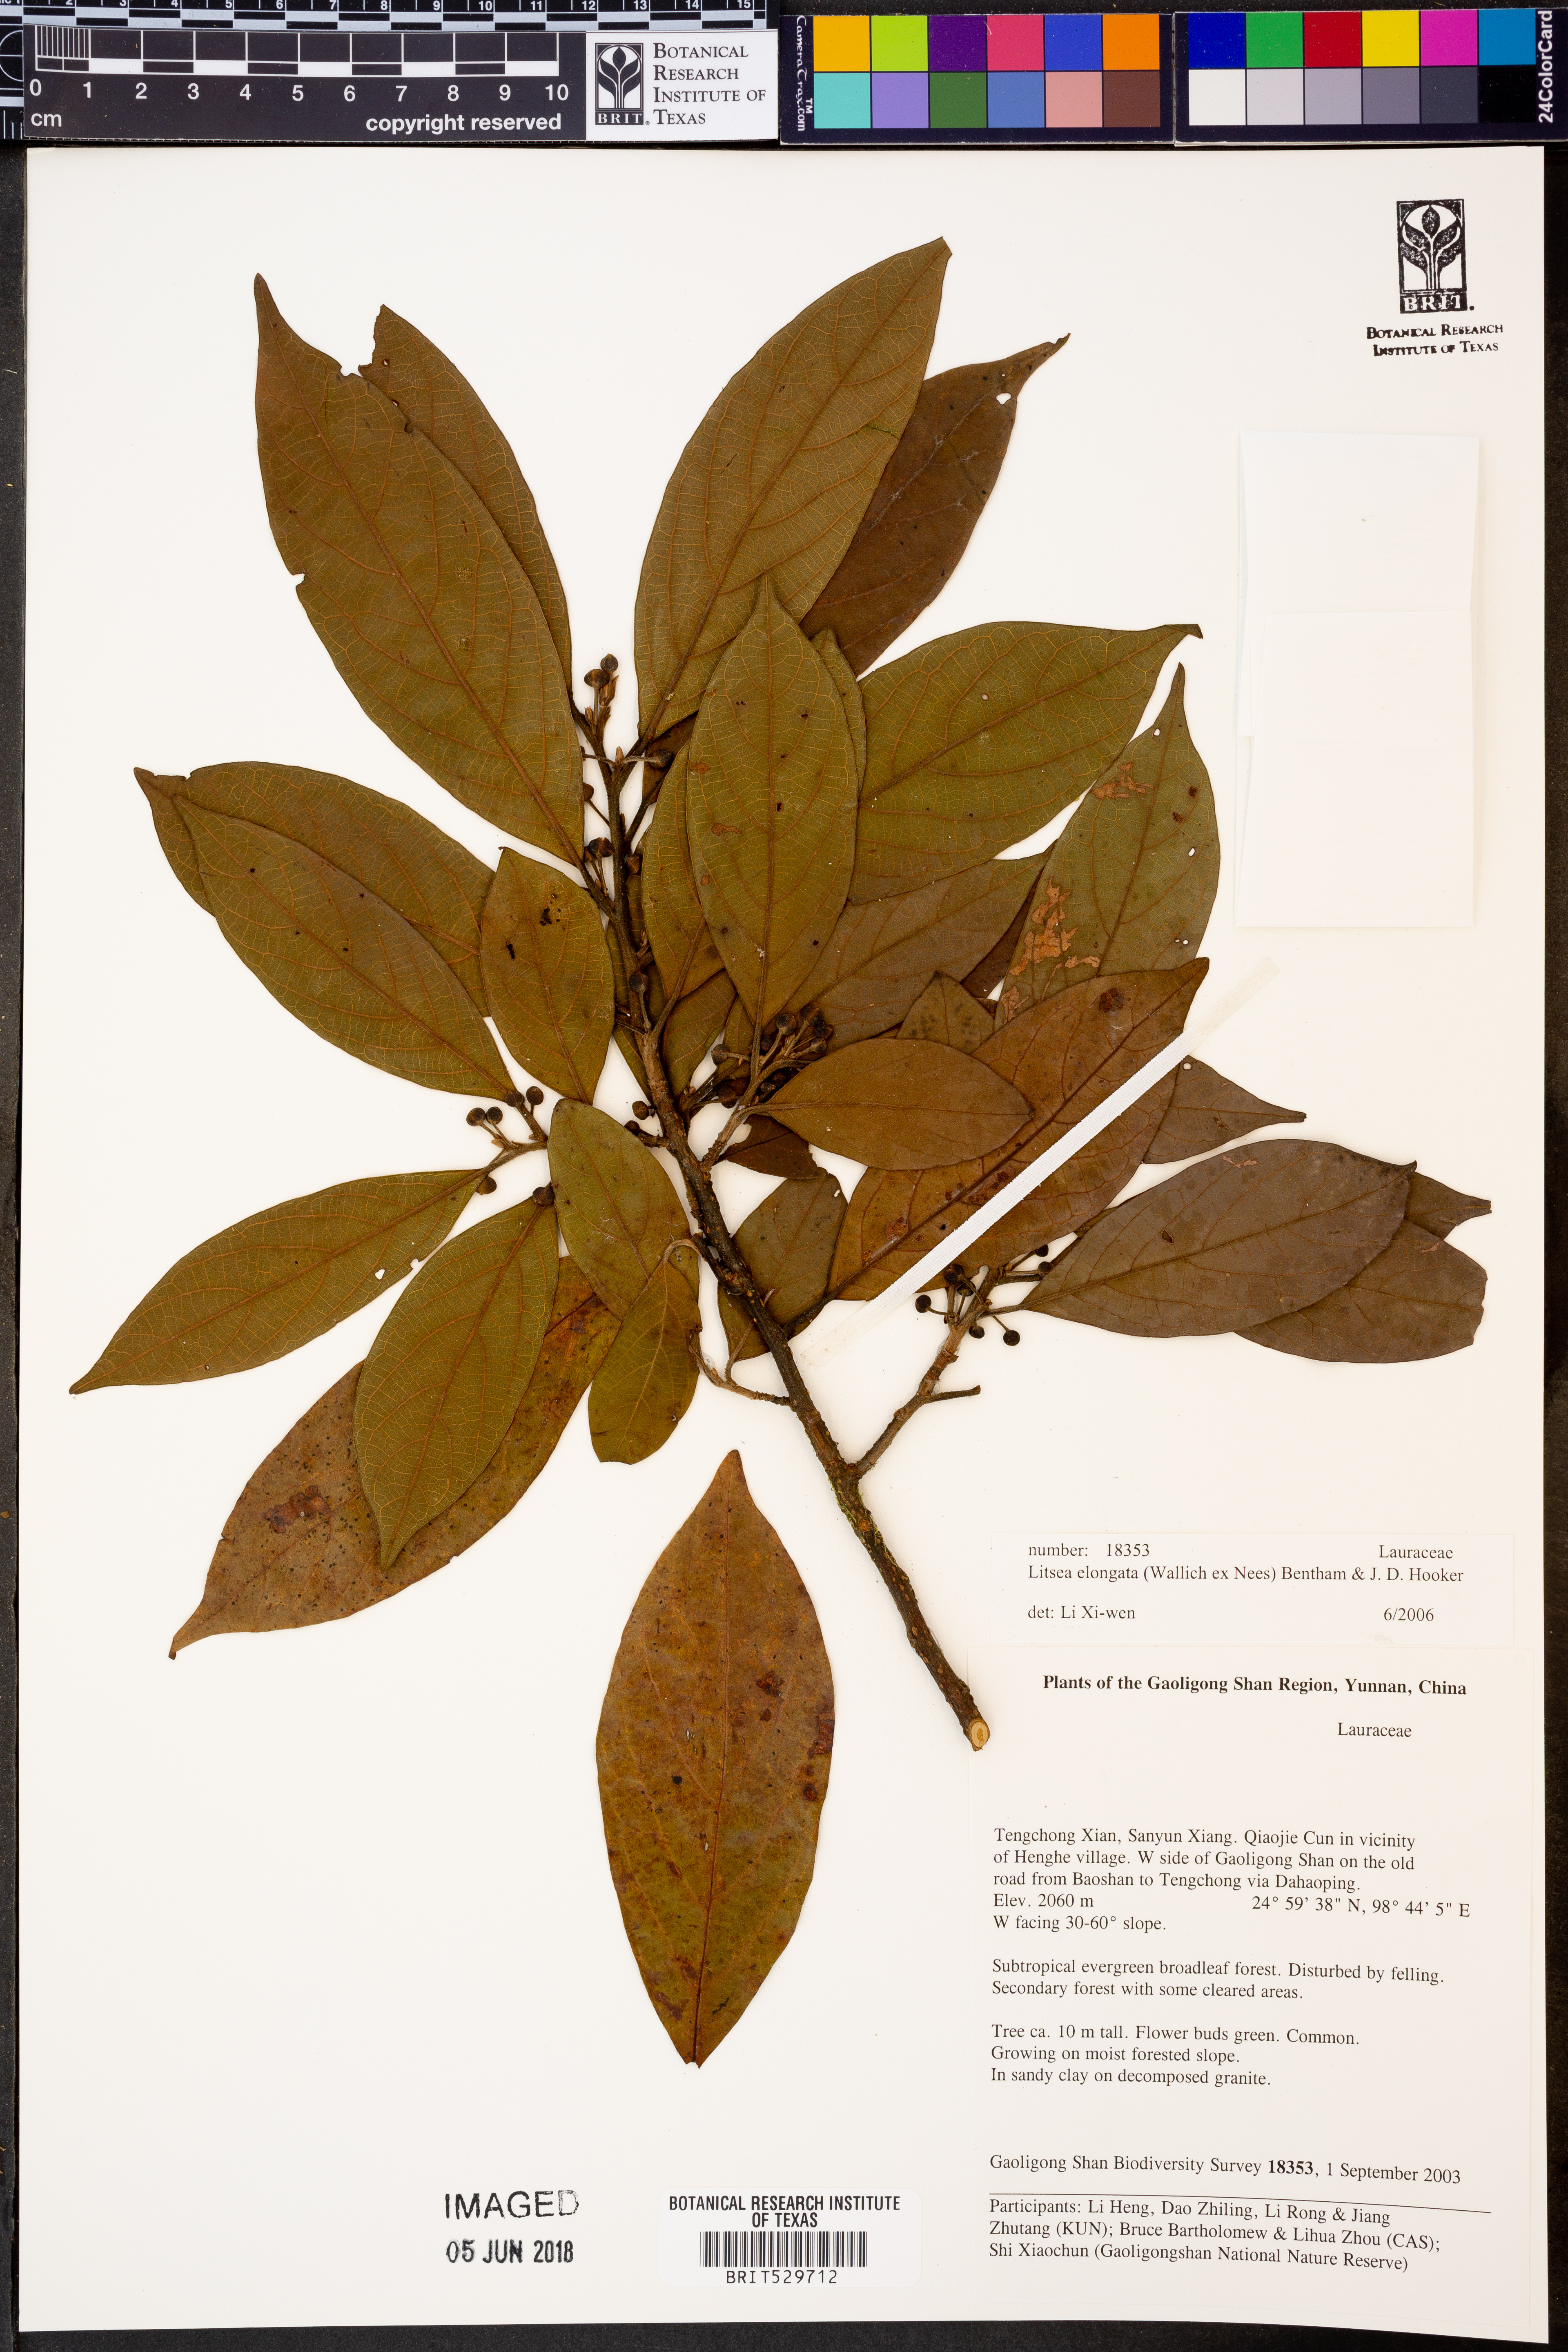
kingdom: Plantae
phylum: Tracheophyta
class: Magnoliopsida
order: Laurales
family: Lauraceae
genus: Litsea
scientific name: Litsea elongata
